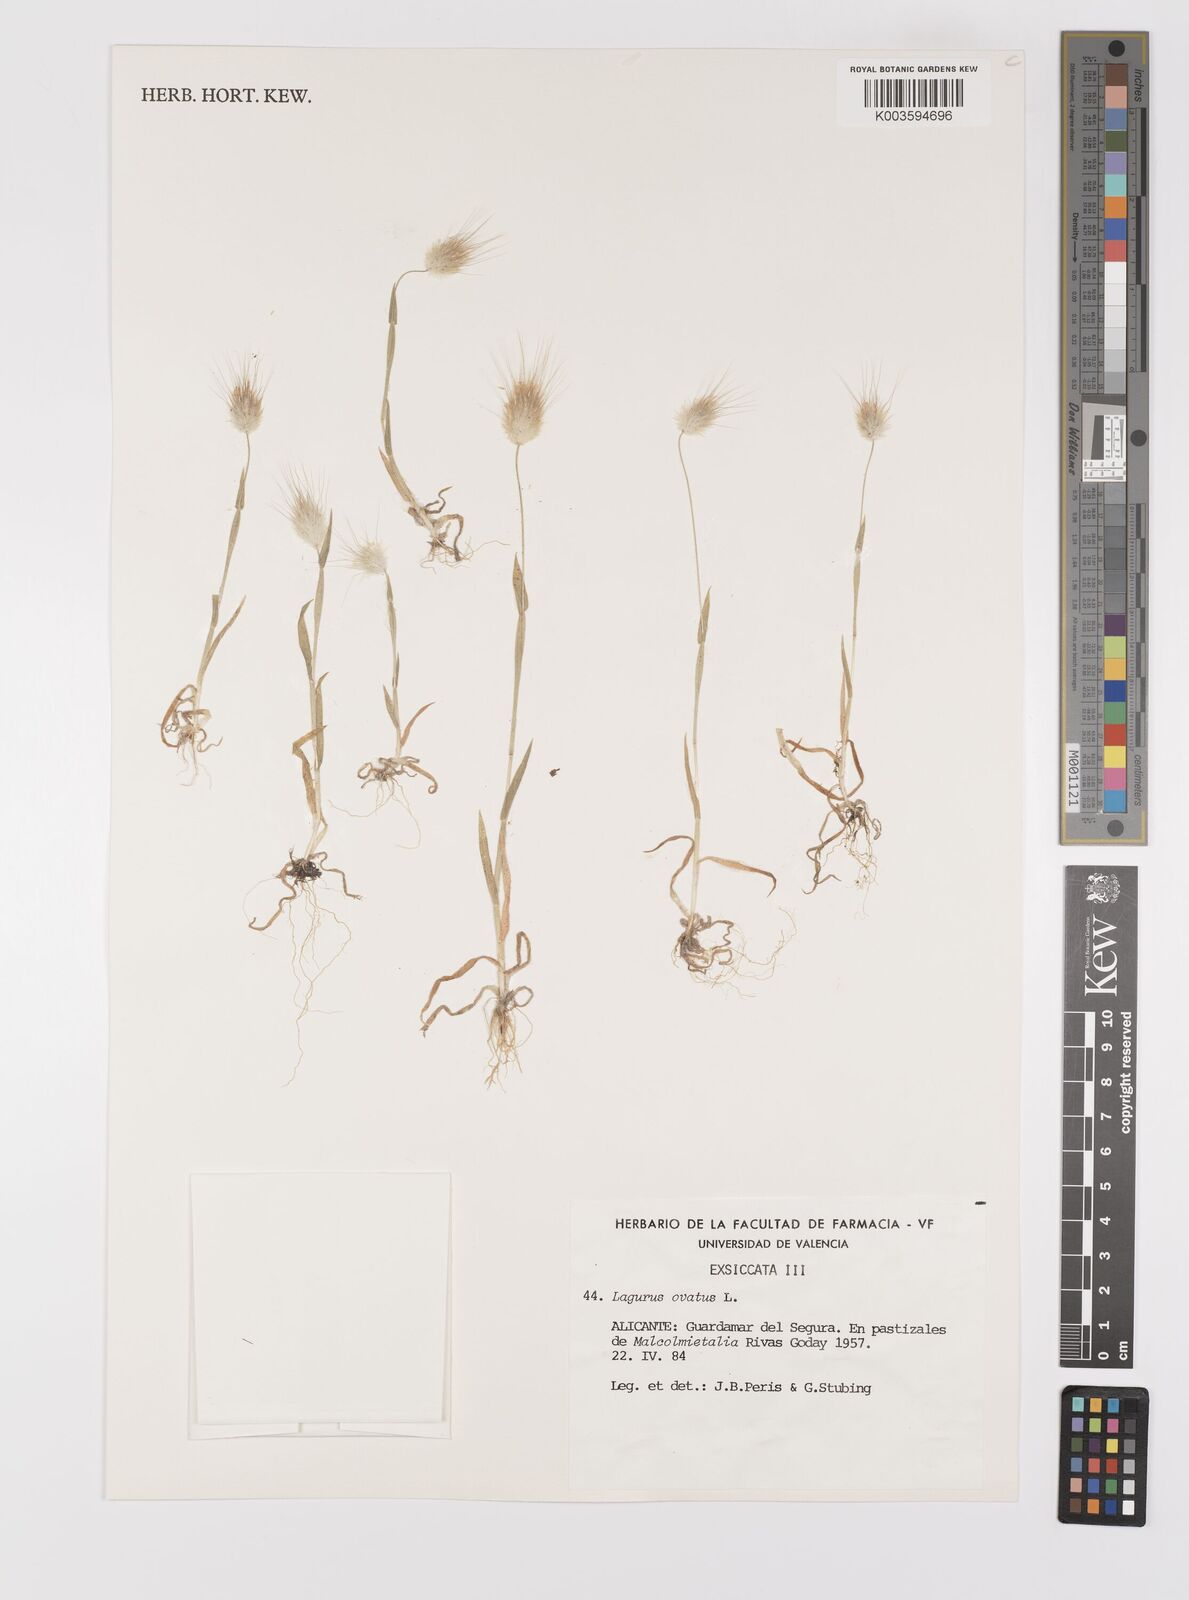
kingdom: Plantae
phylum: Tracheophyta
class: Liliopsida
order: Poales
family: Poaceae
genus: Lagurus
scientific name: Lagurus ovatus
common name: Hare's-tail
